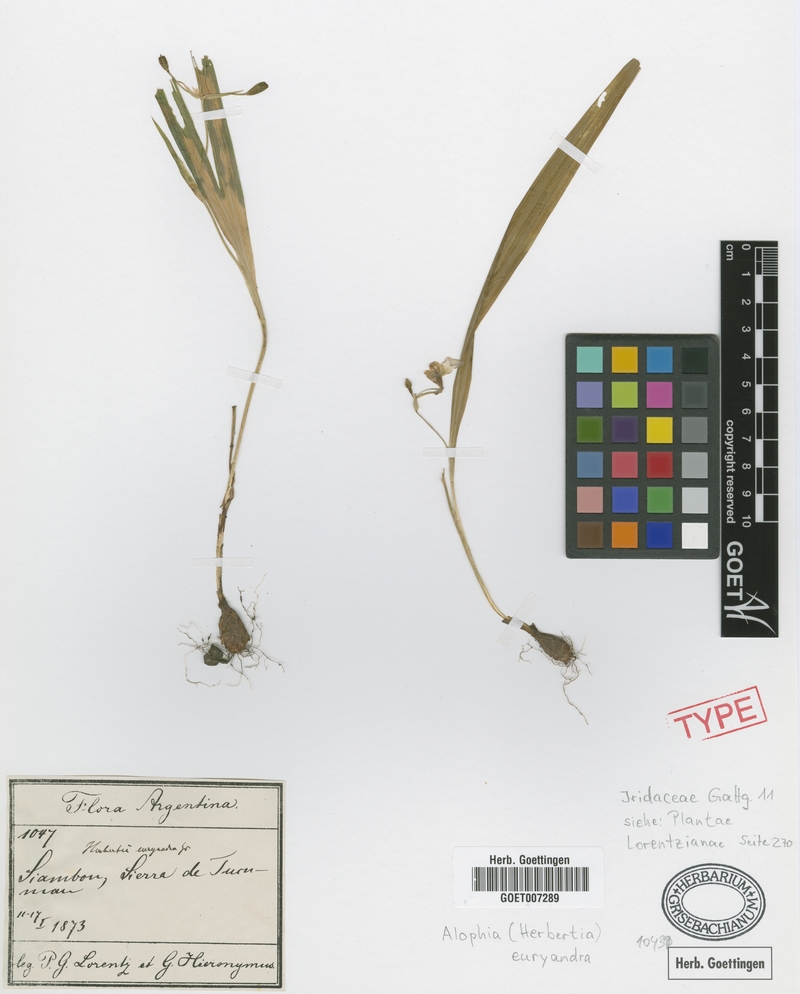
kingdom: Plantae
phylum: Tracheophyta
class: Liliopsida
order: Asparagales
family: Iridaceae
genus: Ennealophus
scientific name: Ennealophus euryandrus
